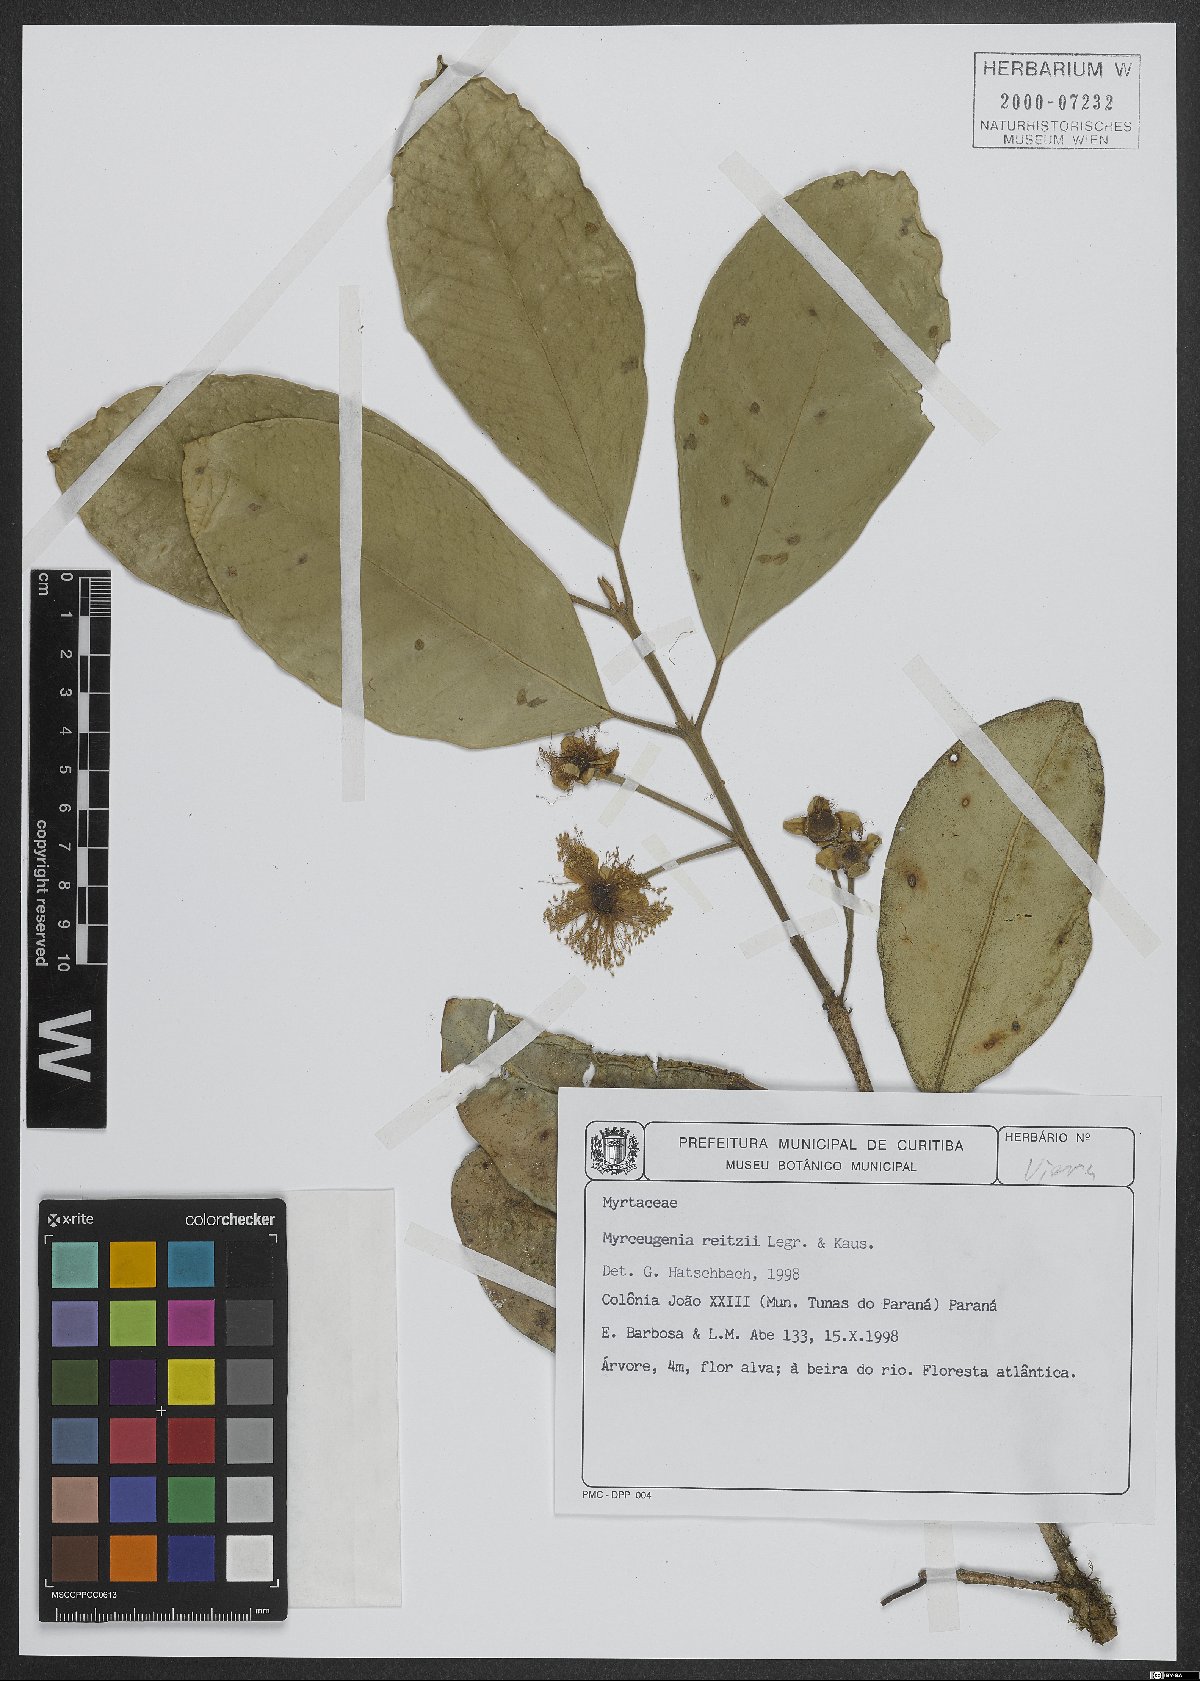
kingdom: Plantae
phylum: Tracheophyta
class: Magnoliopsida
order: Myrtales
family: Myrtaceae
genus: Myrceugenia
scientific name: Myrceugenia reitzii
